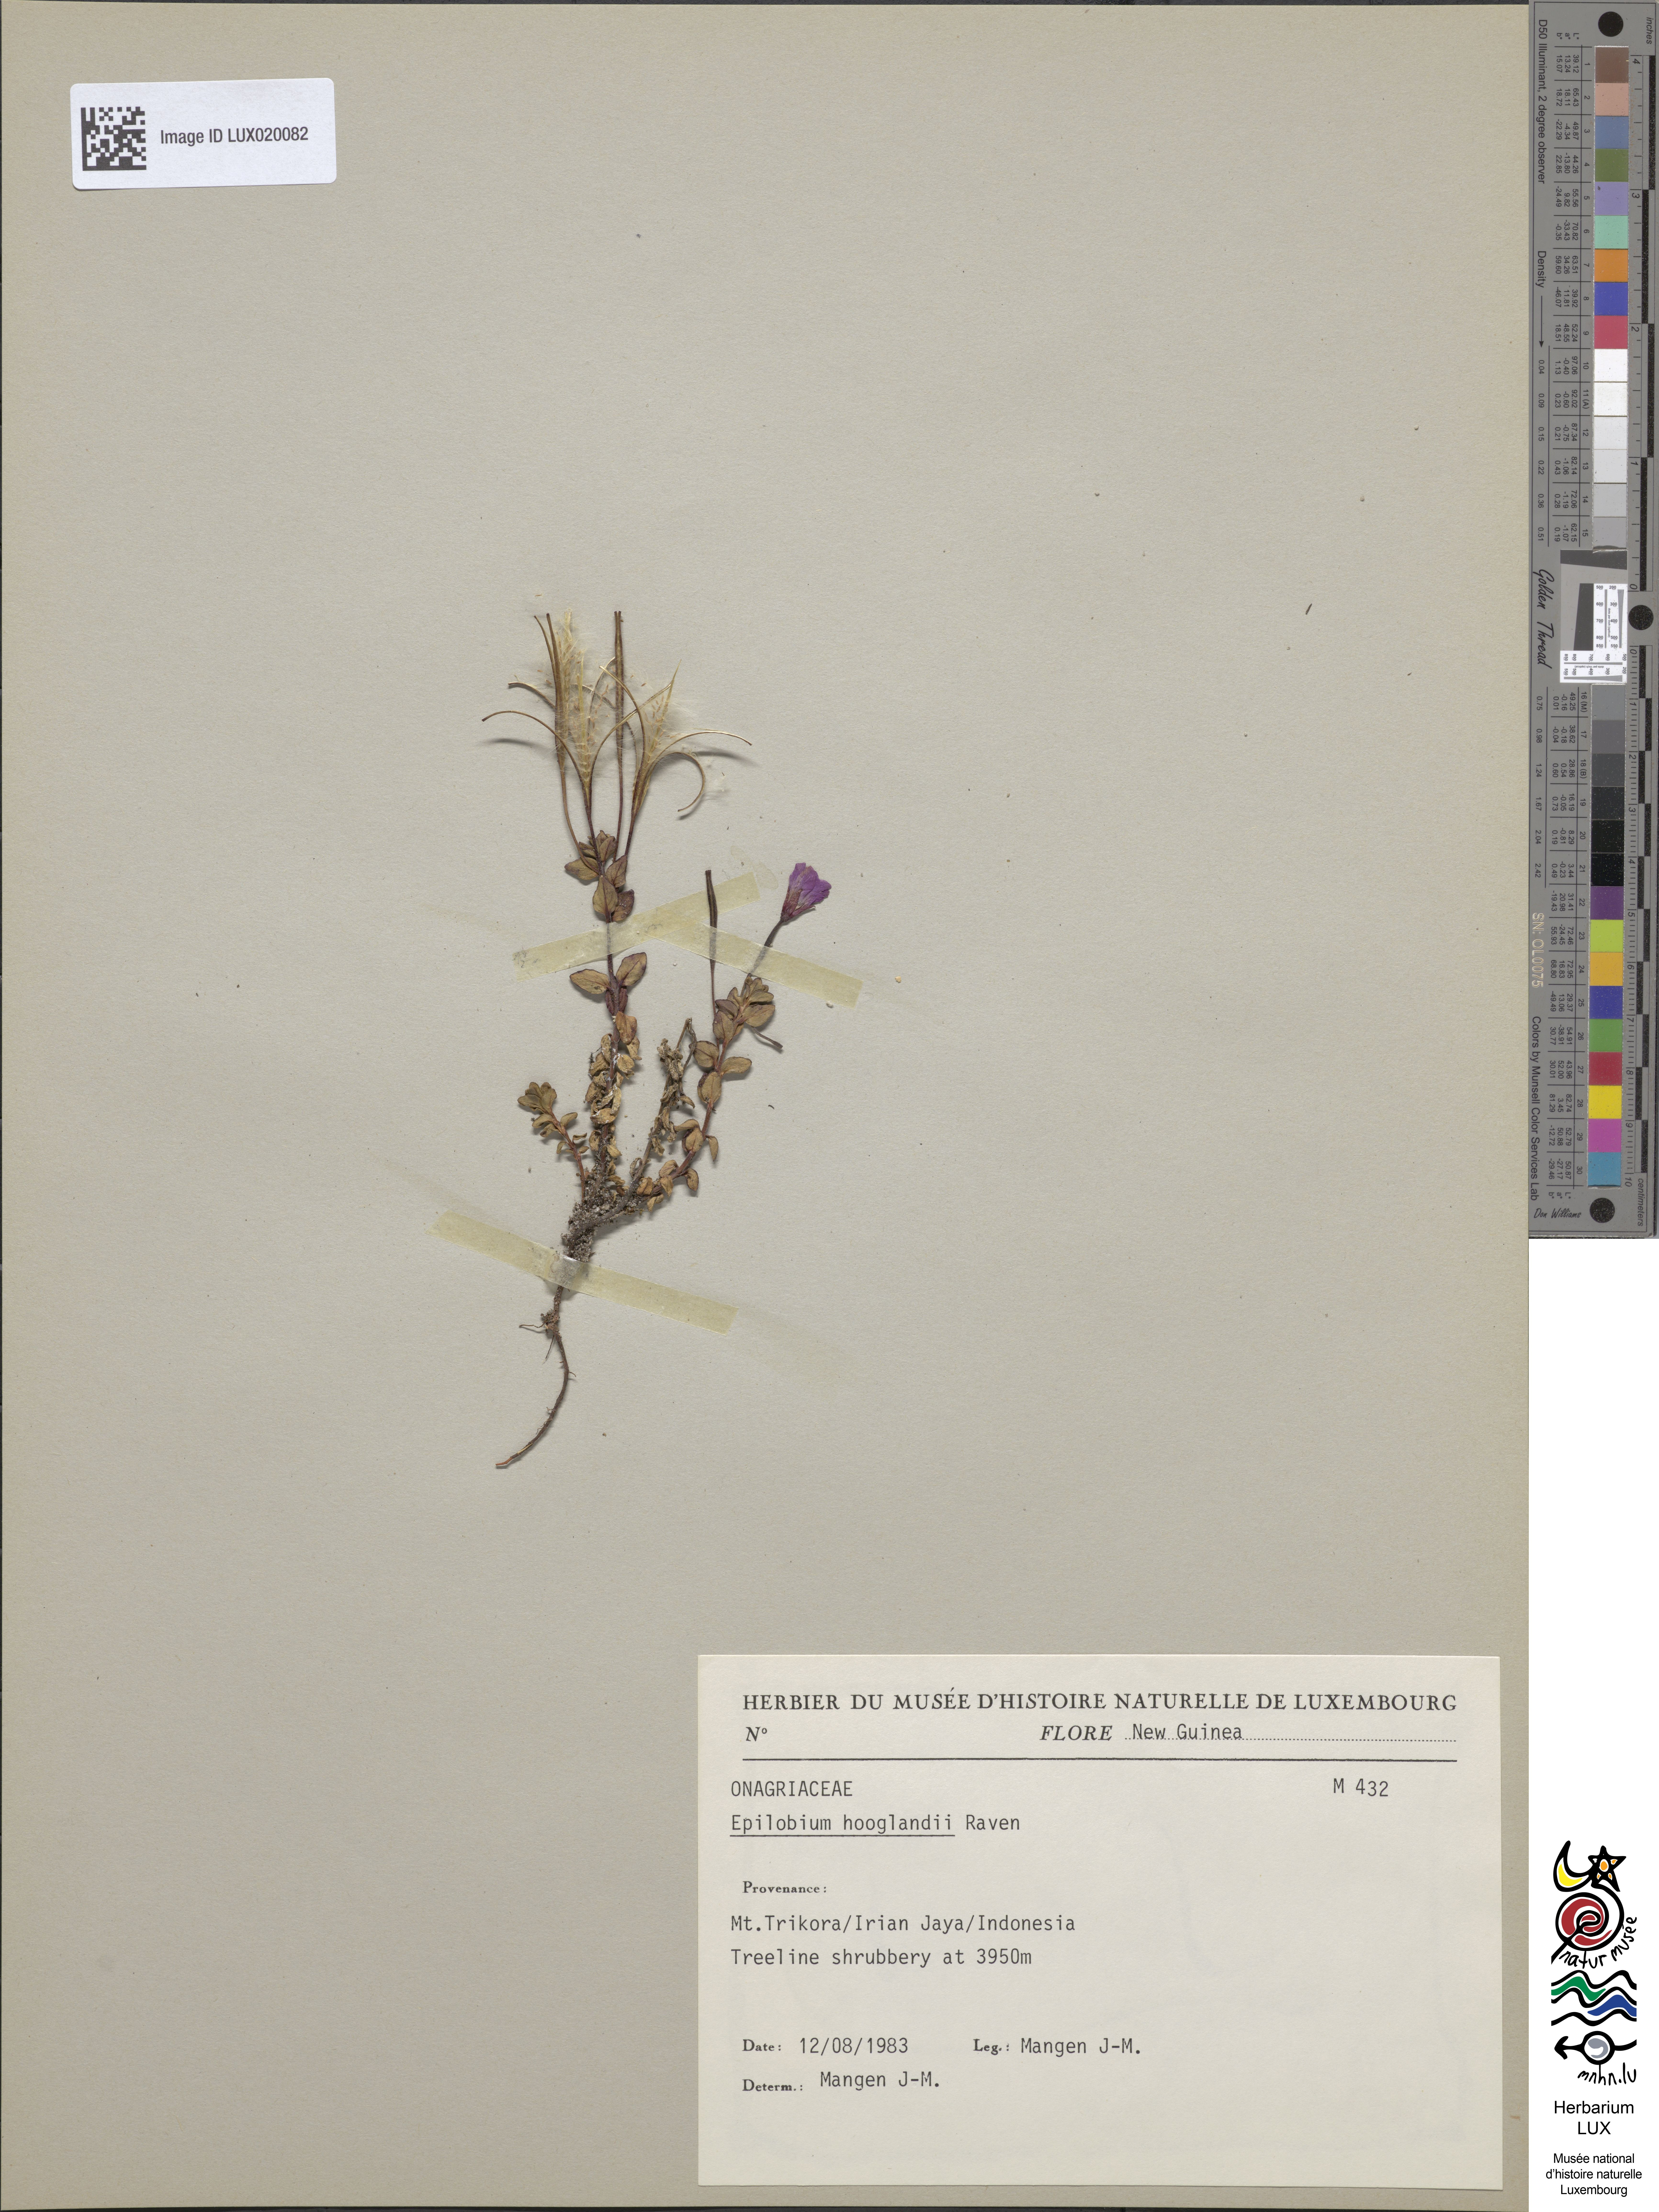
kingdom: Plantae
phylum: Tracheophyta
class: Magnoliopsida
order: Myrtales
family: Onagraceae
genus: Epilobium
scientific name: Epilobium hooglandii
